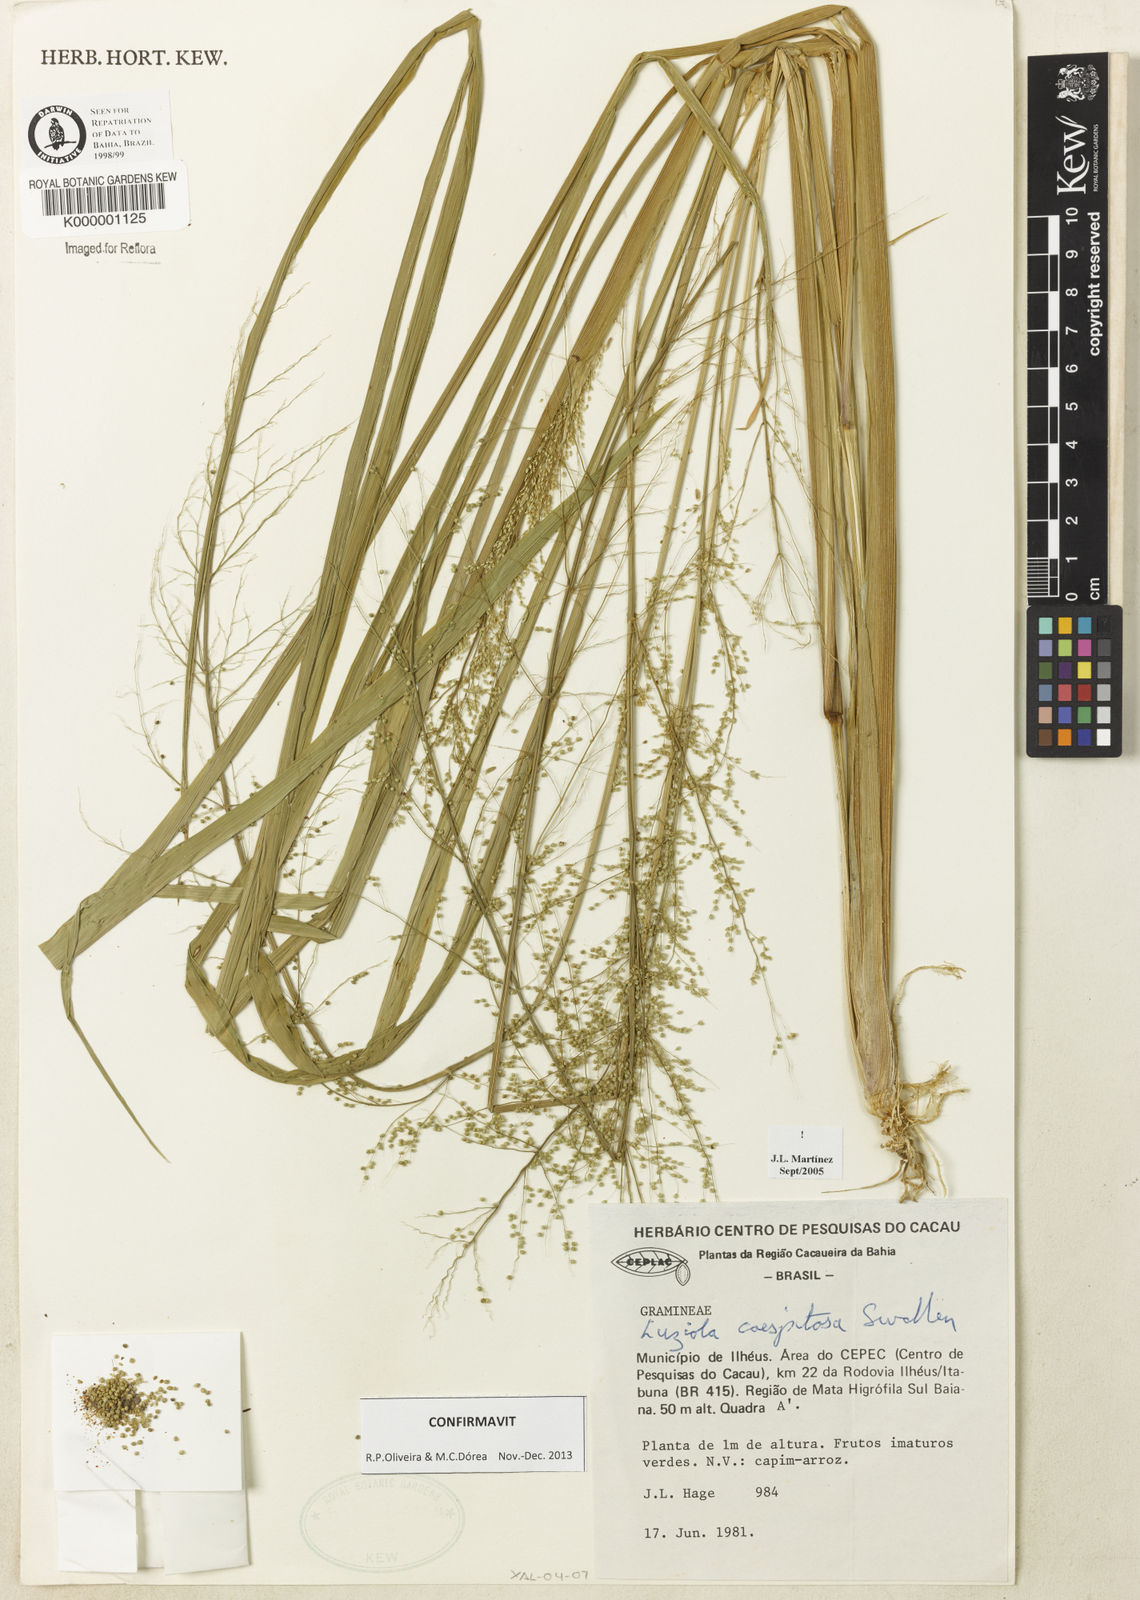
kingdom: Plantae
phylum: Tracheophyta
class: Liliopsida
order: Poales
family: Poaceae
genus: Luziola
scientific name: Luziola caespitosa
